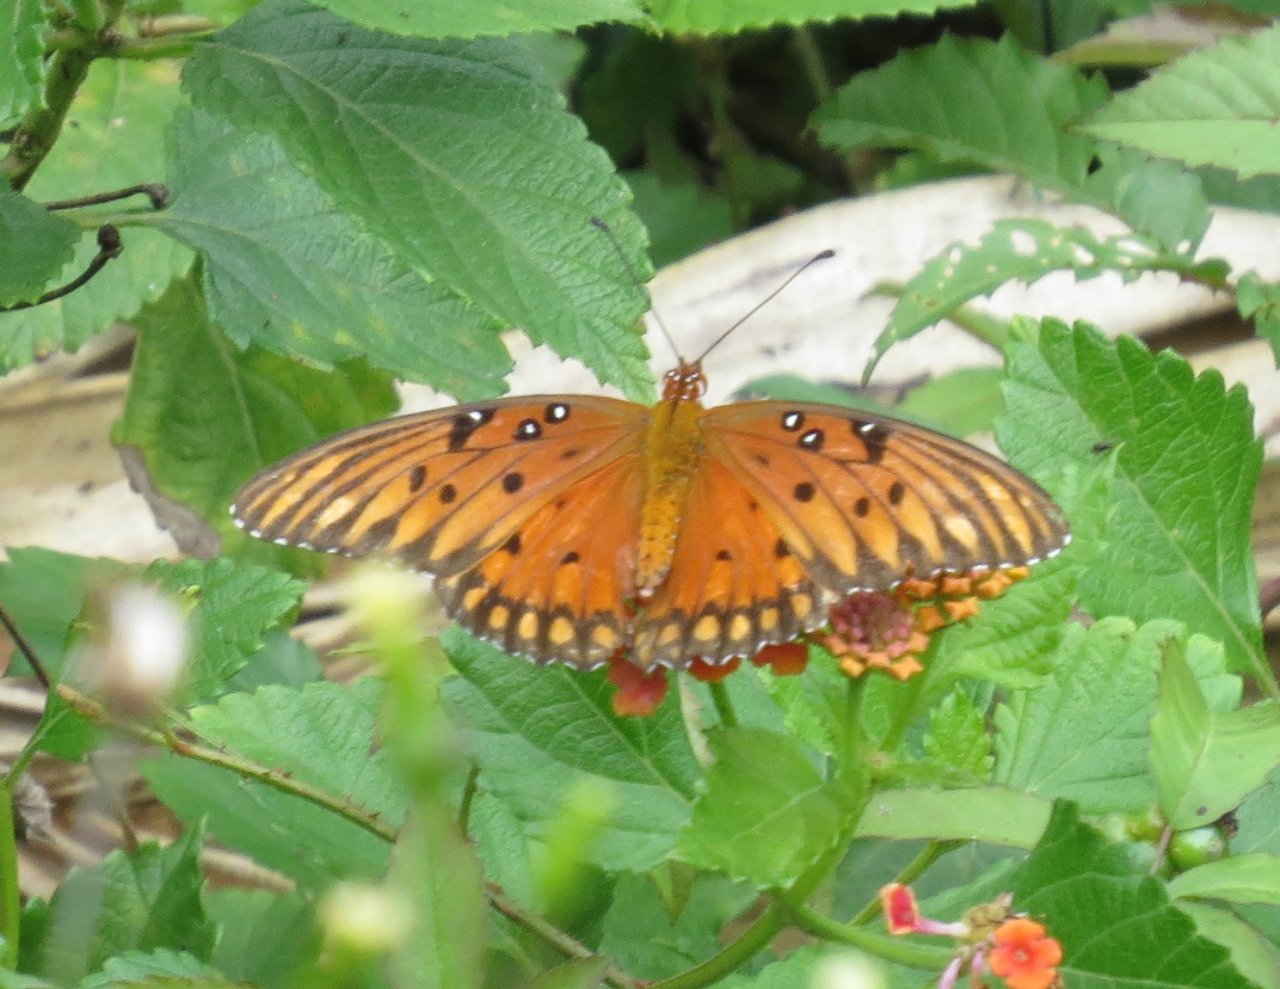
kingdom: Animalia
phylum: Arthropoda
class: Insecta
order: Lepidoptera
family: Nymphalidae
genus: Dione
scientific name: Dione vanillae
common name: Gulf Fritillary
